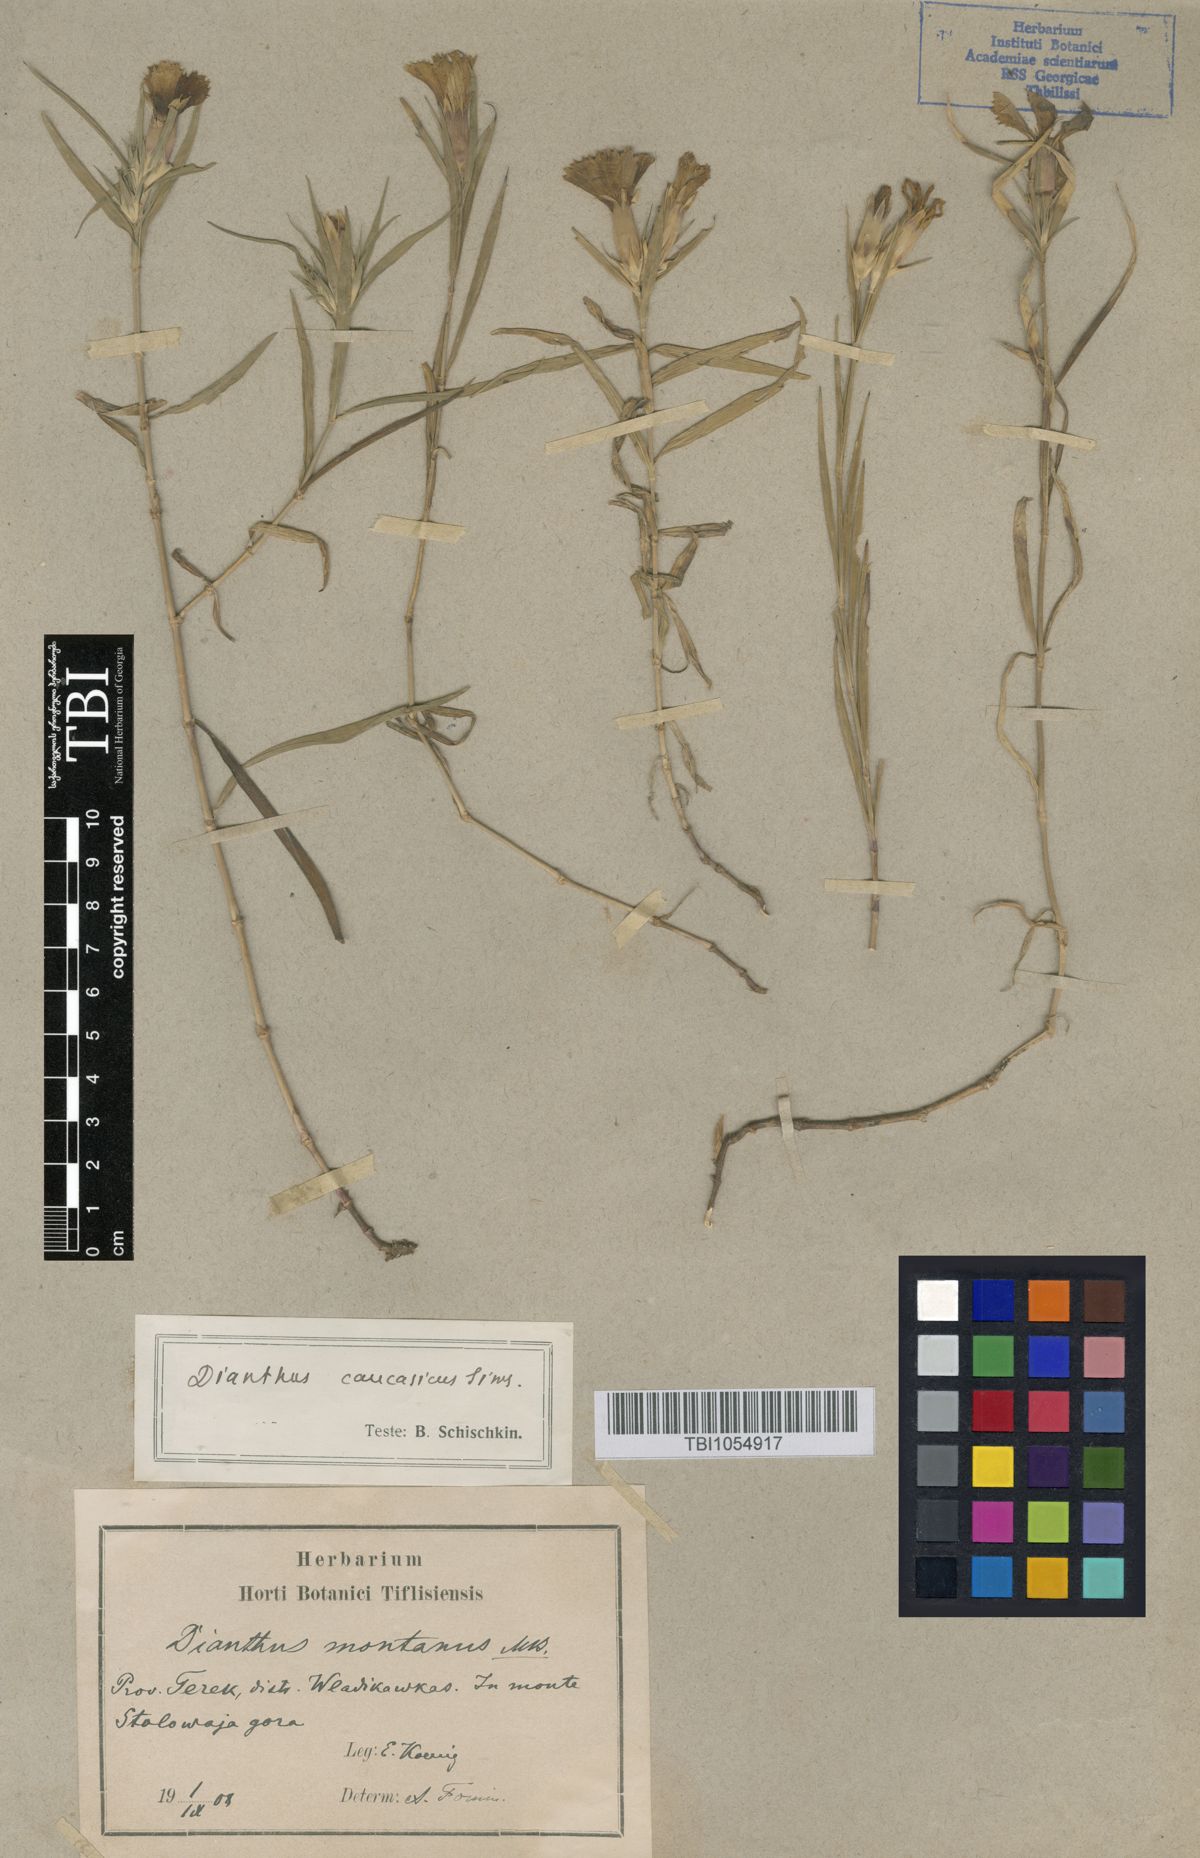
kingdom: Plantae
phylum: Tracheophyta
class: Magnoliopsida
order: Caryophyllales
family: Caryophyllaceae
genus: Dianthus
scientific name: Dianthus caucaseus
